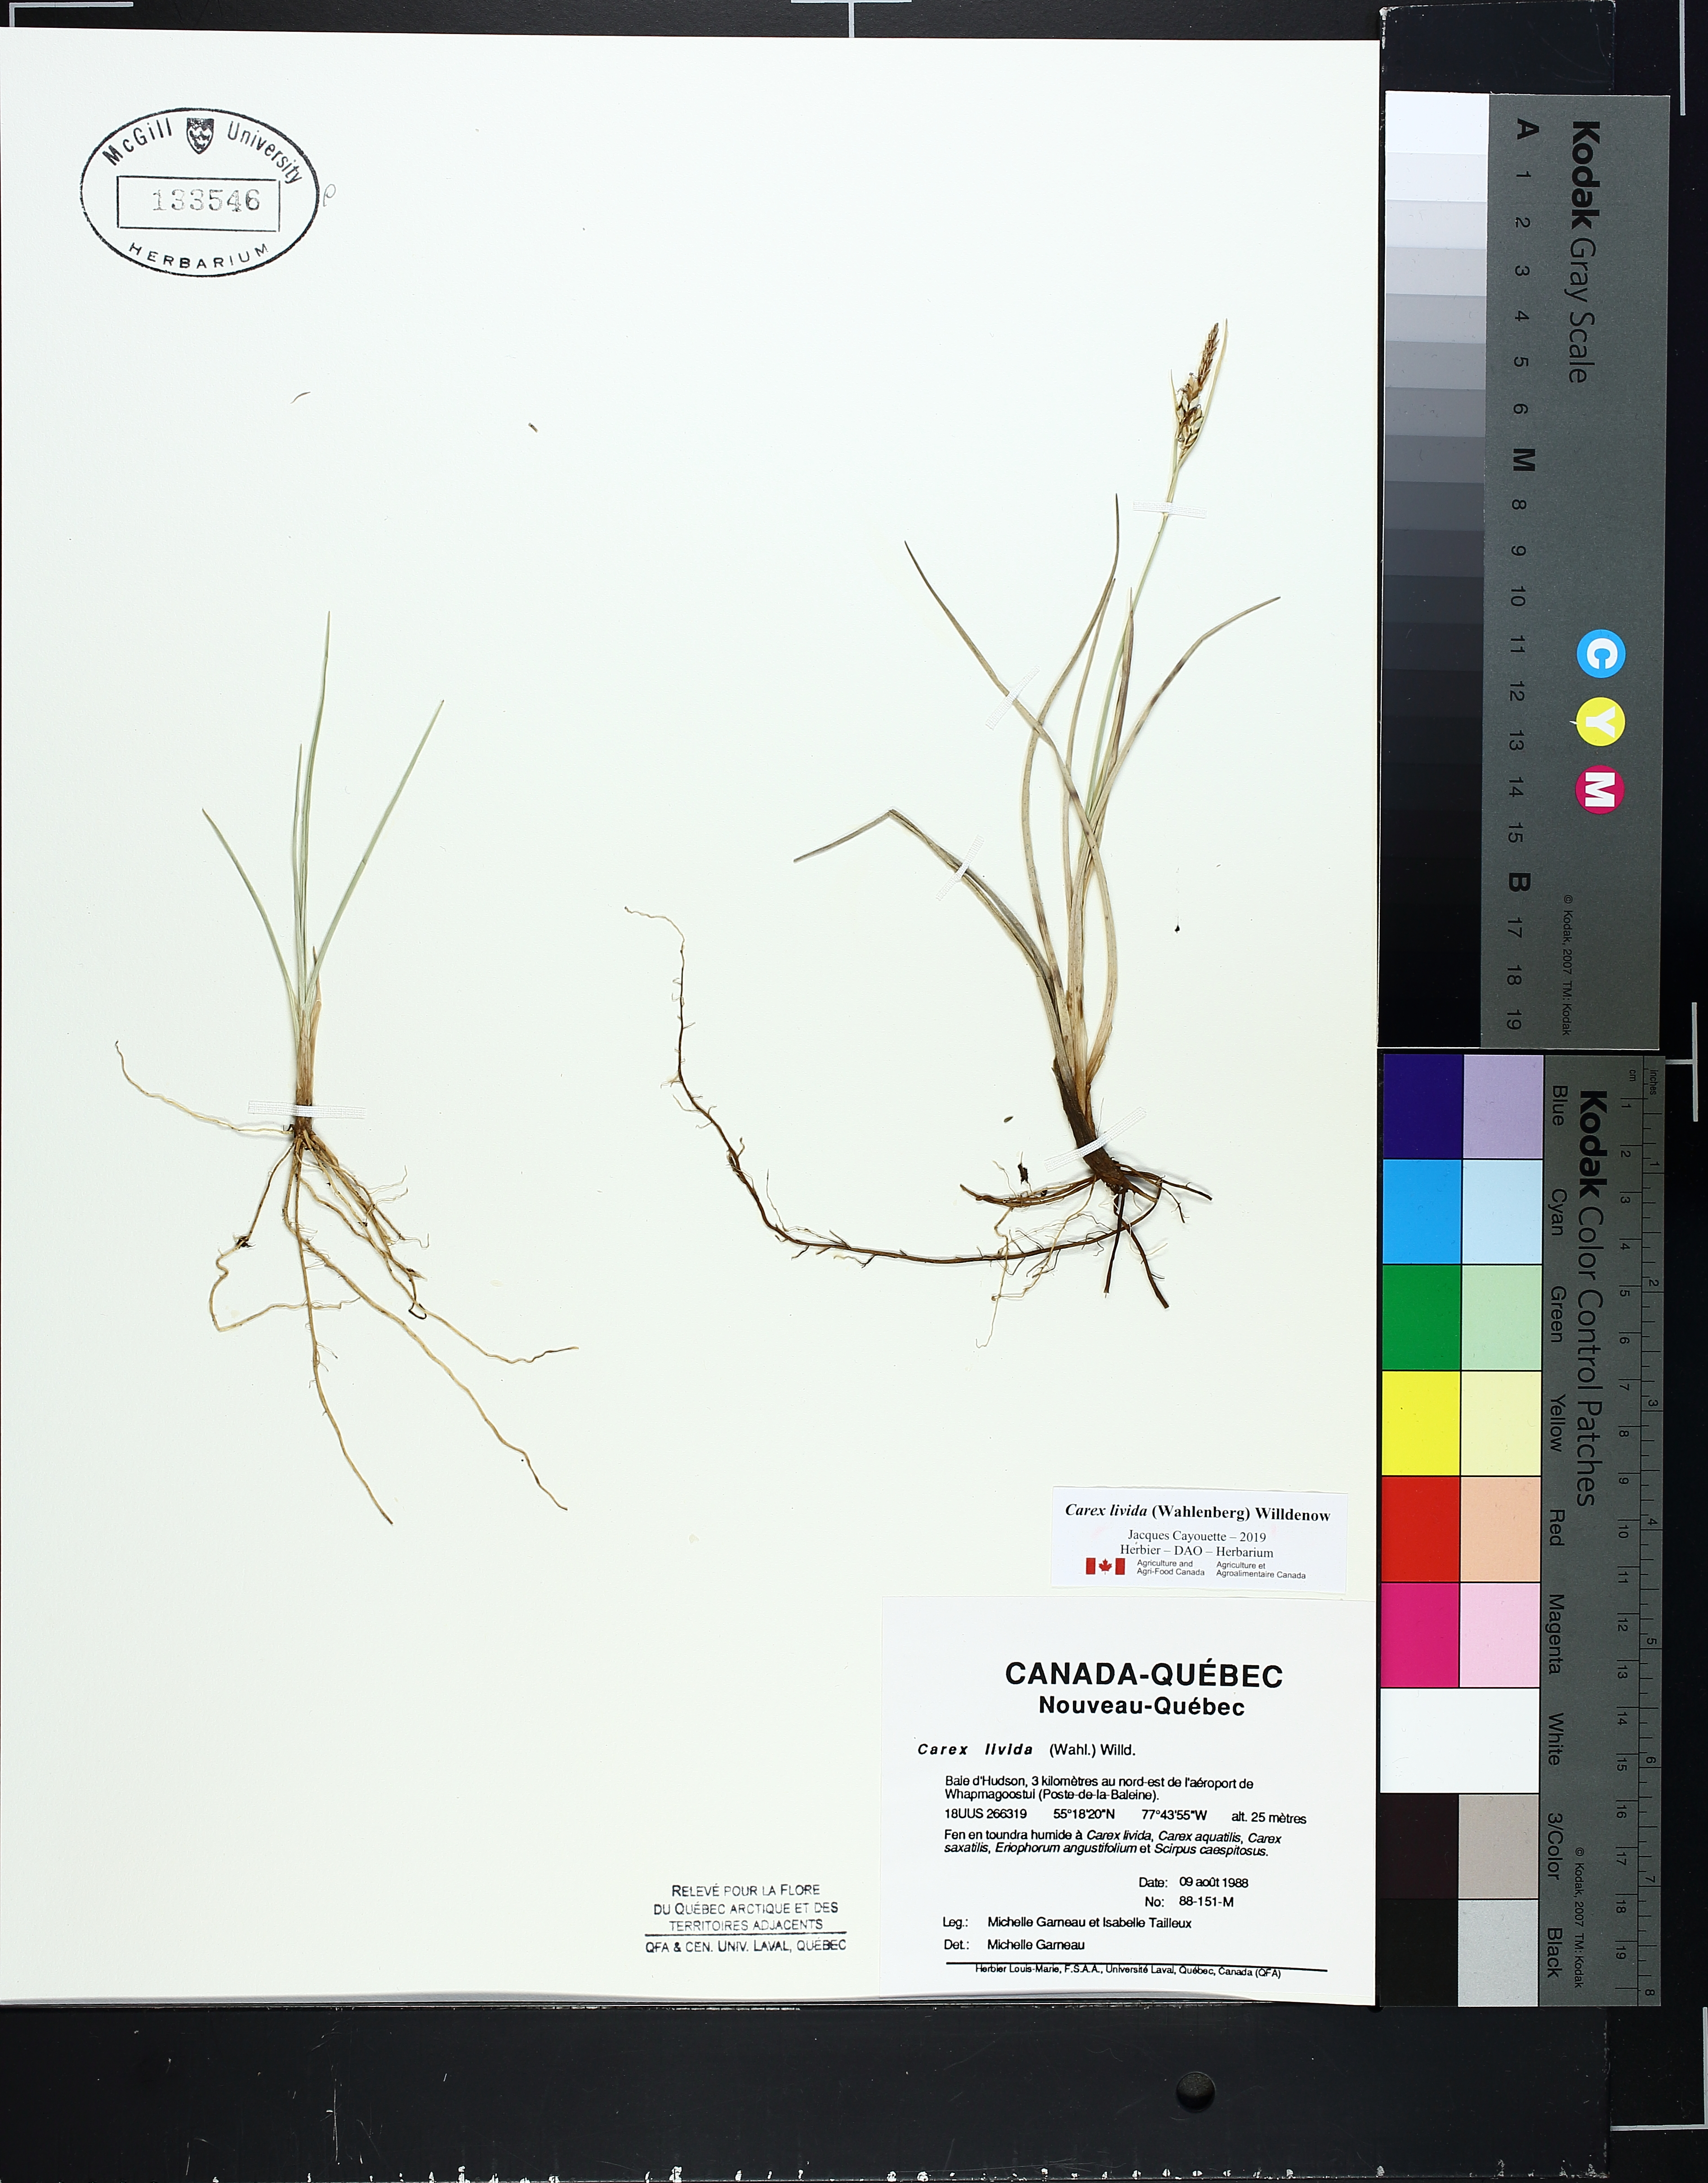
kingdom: Plantae
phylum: Tracheophyta
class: Liliopsida
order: Poales
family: Cyperaceae
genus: Carex
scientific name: Carex livida
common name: Livid sedge
